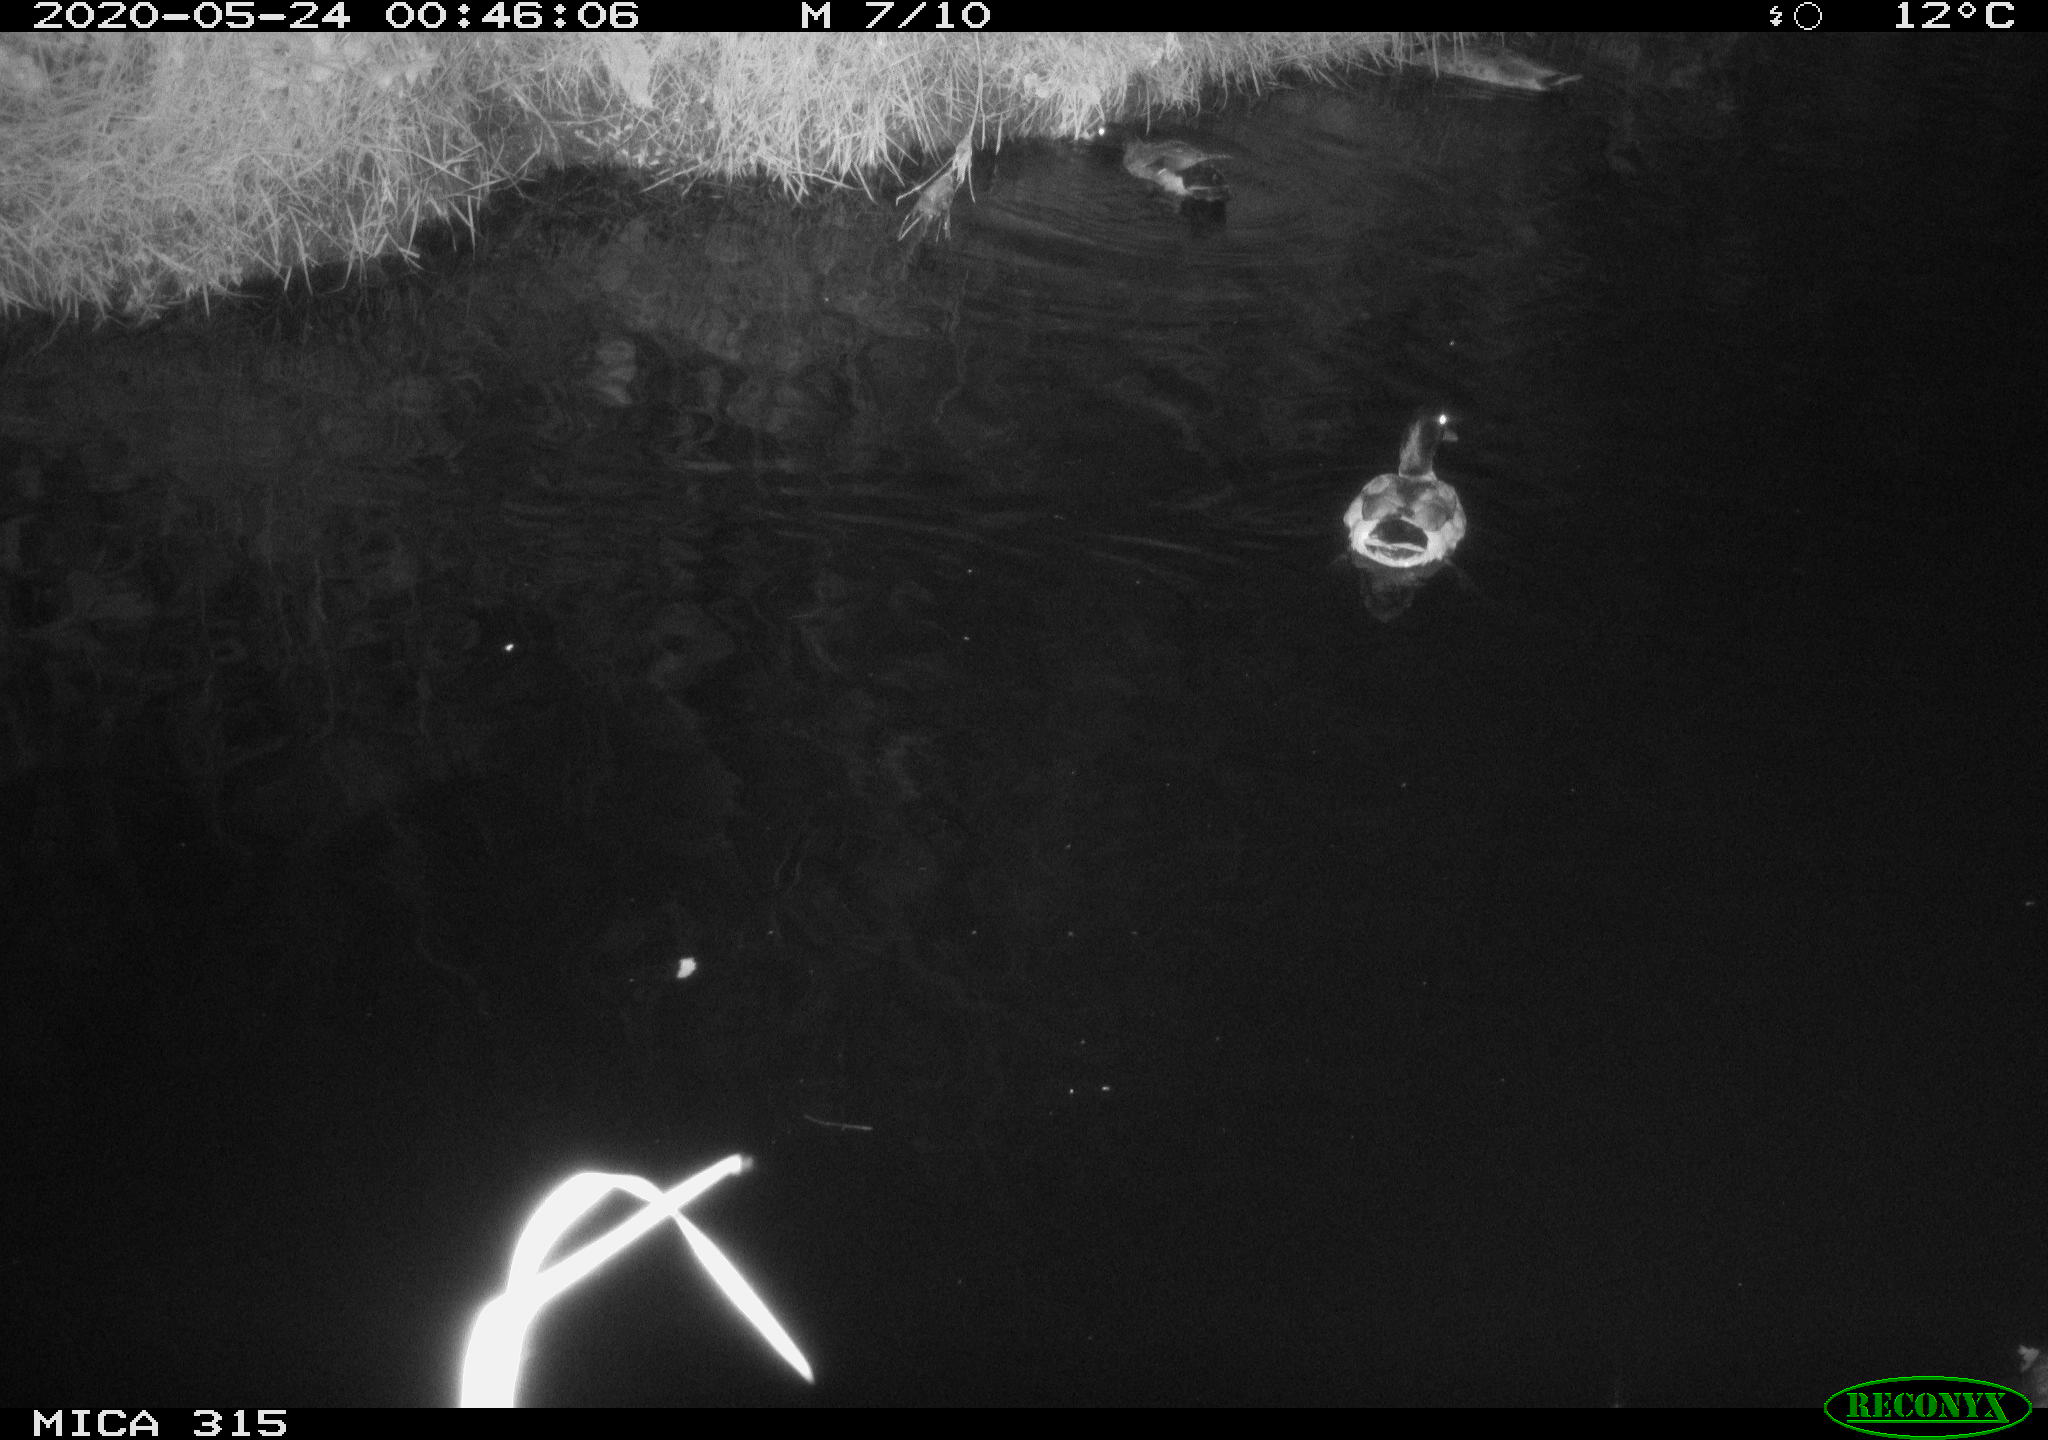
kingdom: Animalia
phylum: Chordata
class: Aves
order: Anseriformes
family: Anatidae
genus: Anas
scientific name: Anas platyrhynchos
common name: Mallard
